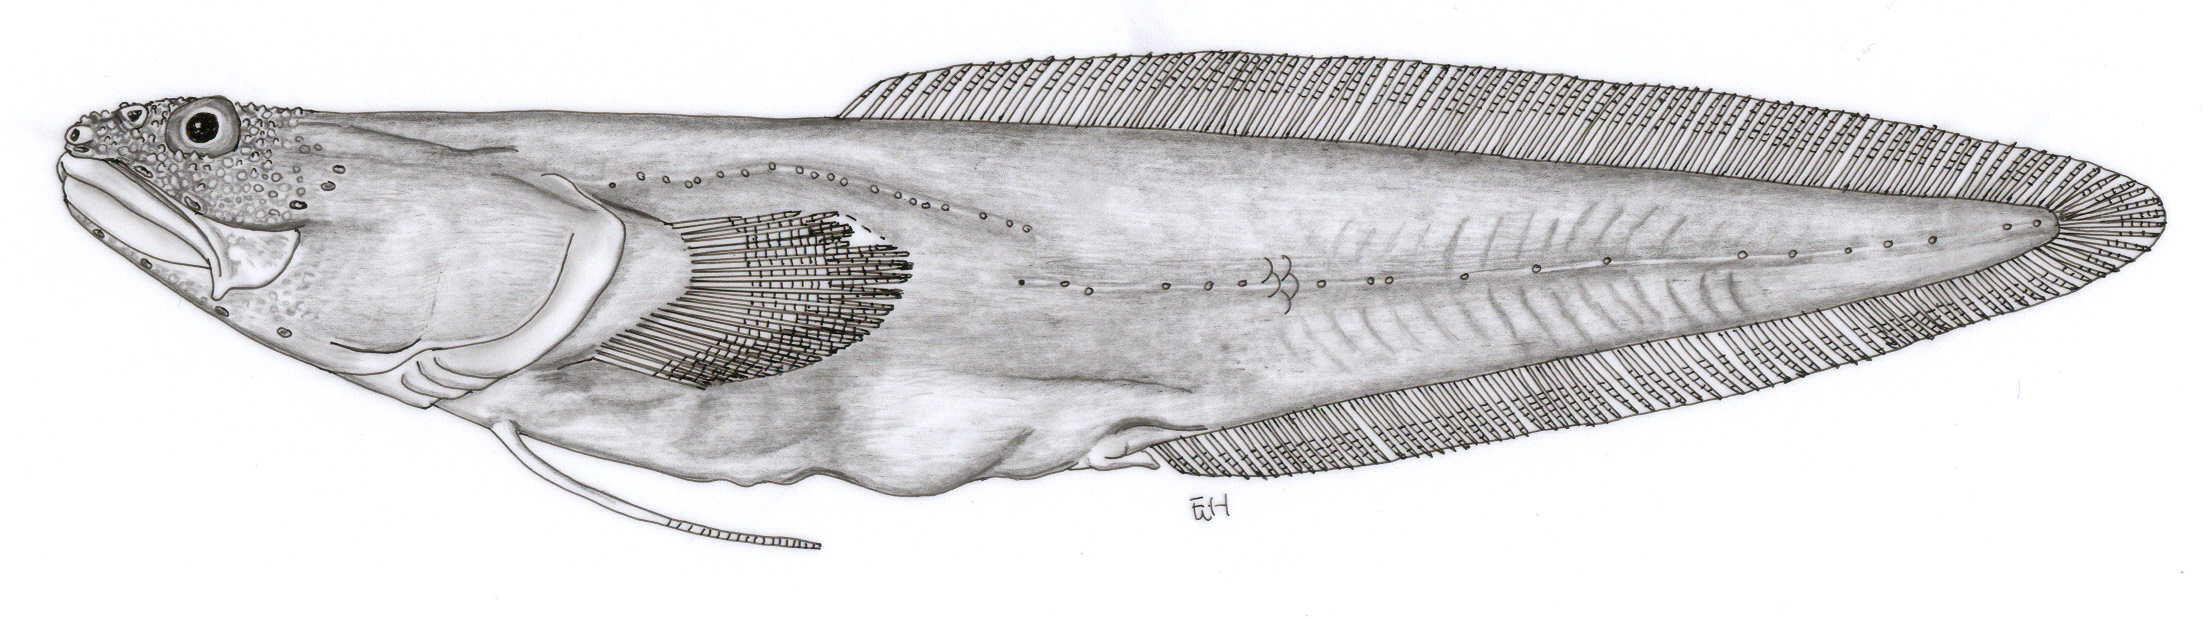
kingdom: Animalia
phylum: Chordata
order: Ophidiiformes
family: Bythitidae
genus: Anacanthobythites
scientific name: Anacanthobythites platycephalus
